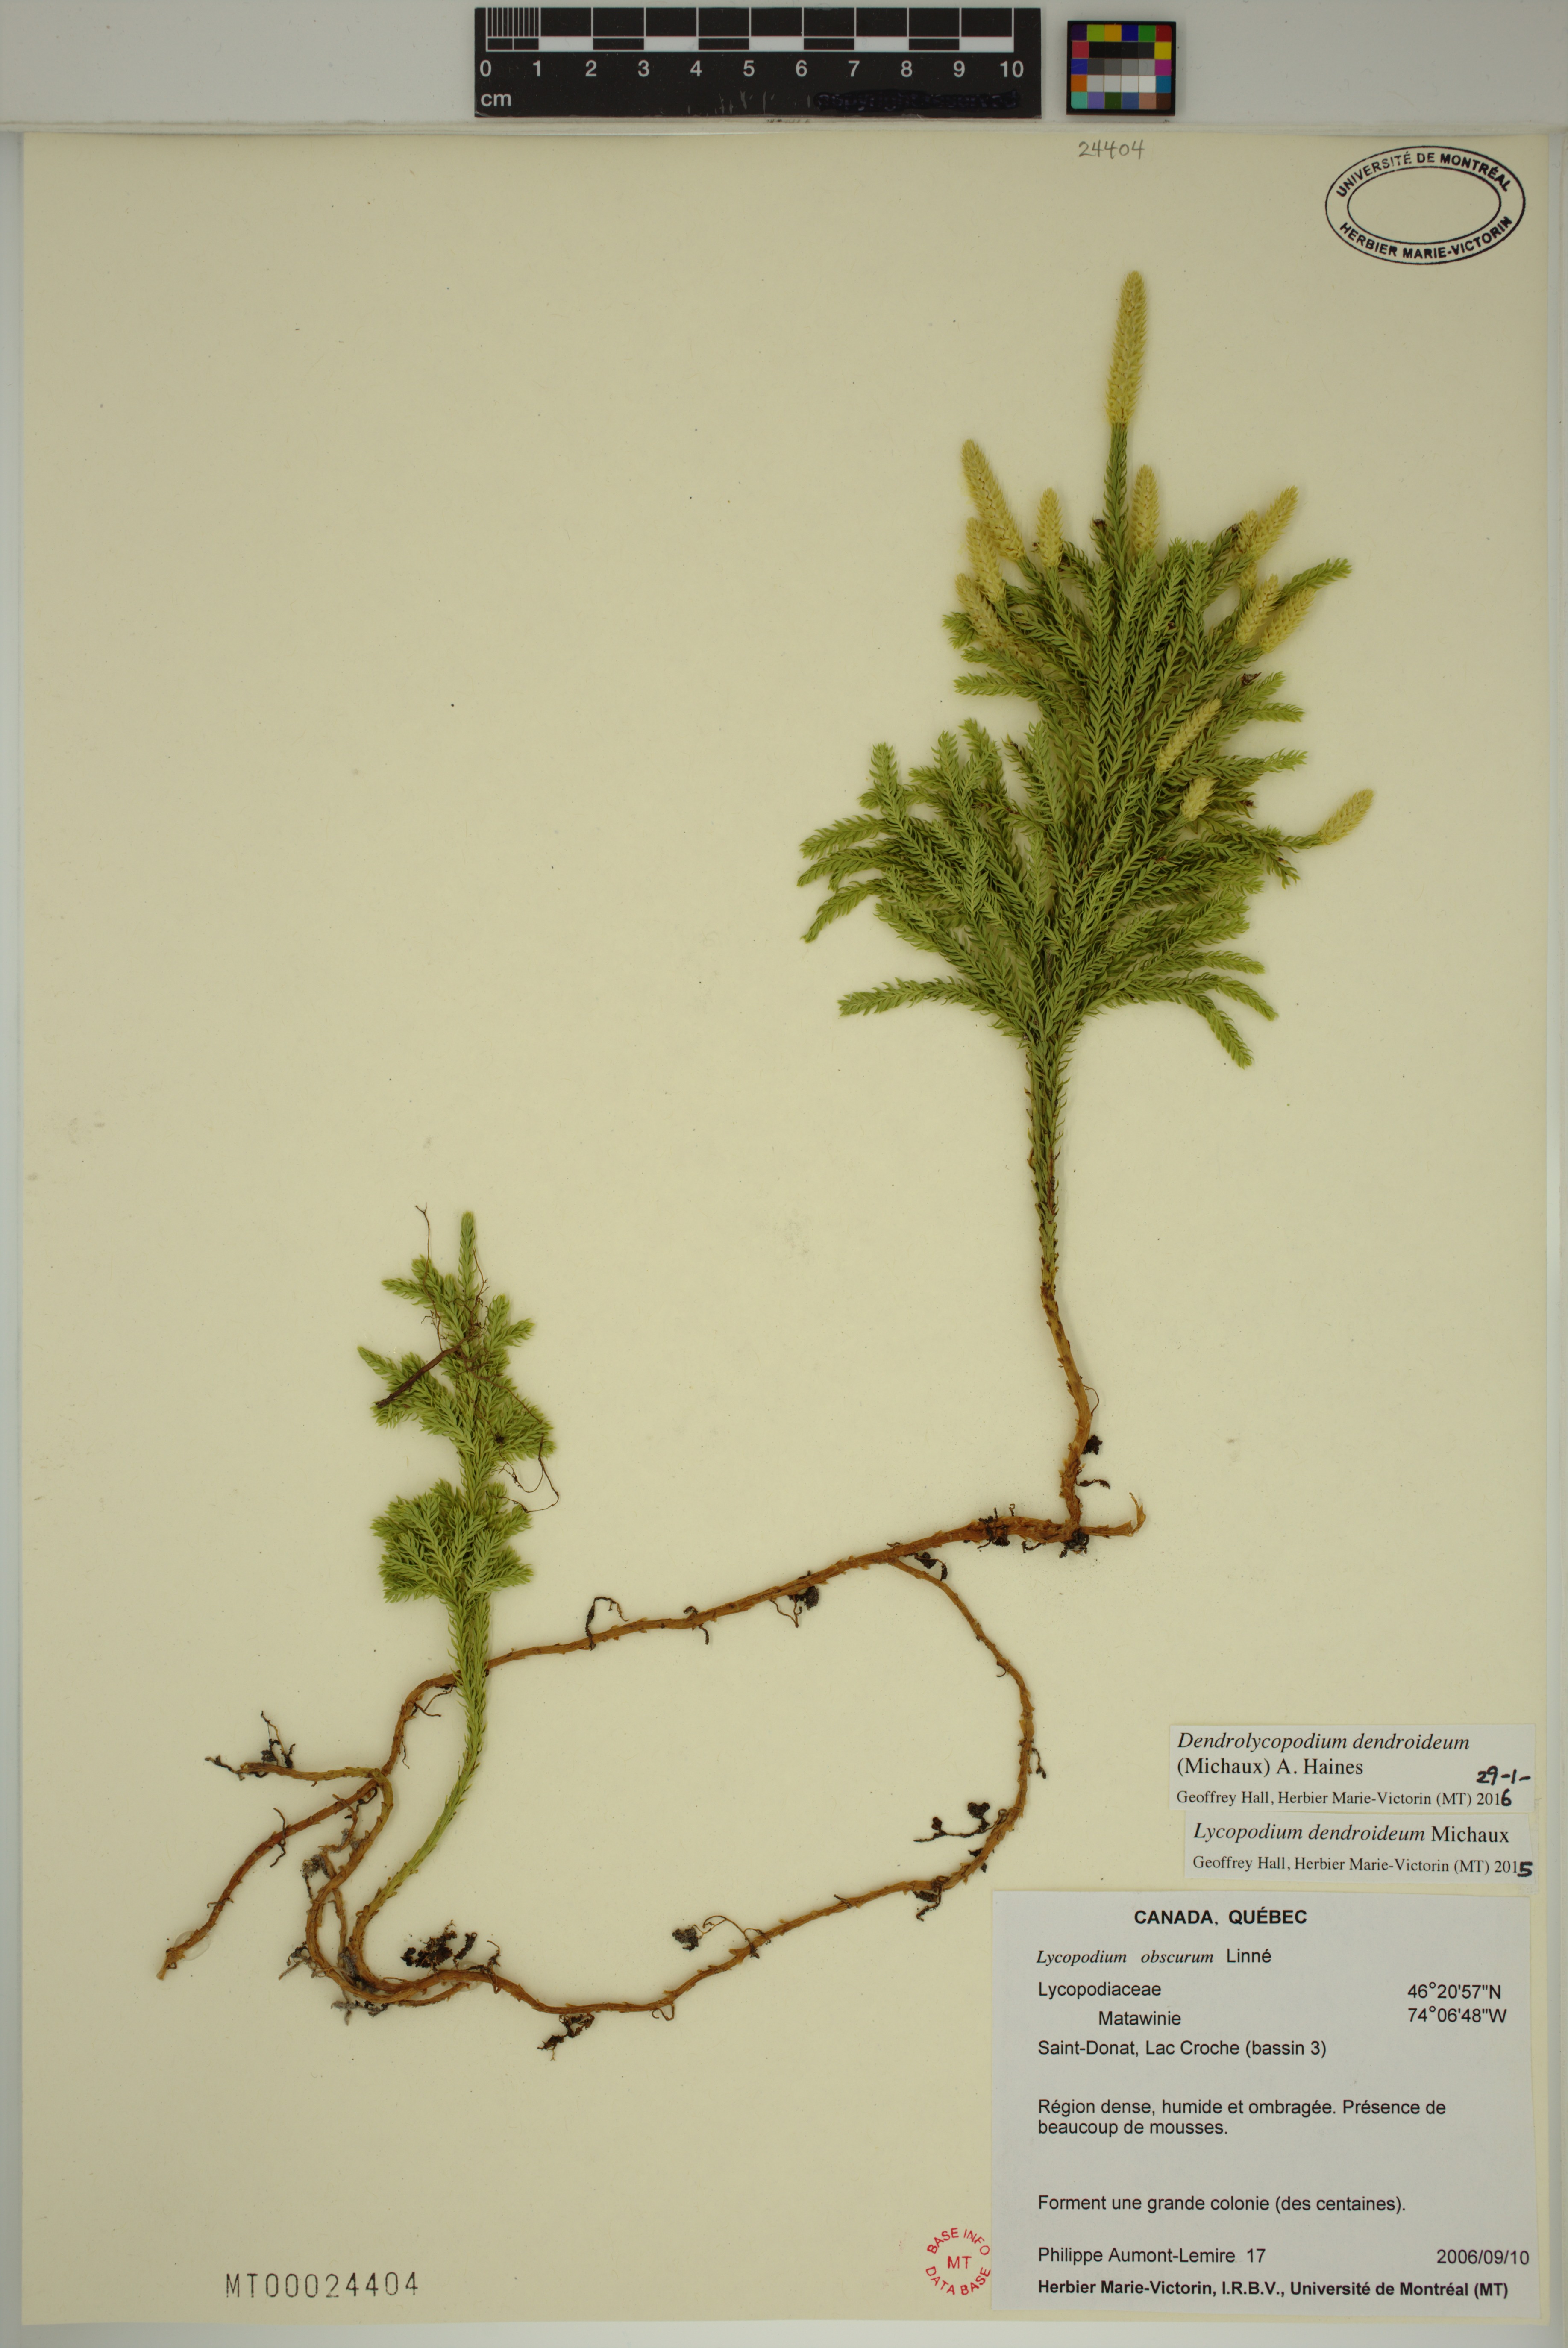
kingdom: Plantae
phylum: Tracheophyta
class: Lycopodiopsida
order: Lycopodiales
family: Lycopodiaceae
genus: Dendrolycopodium
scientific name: Dendrolycopodium dendroideum
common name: Northern tree-clubmoss
